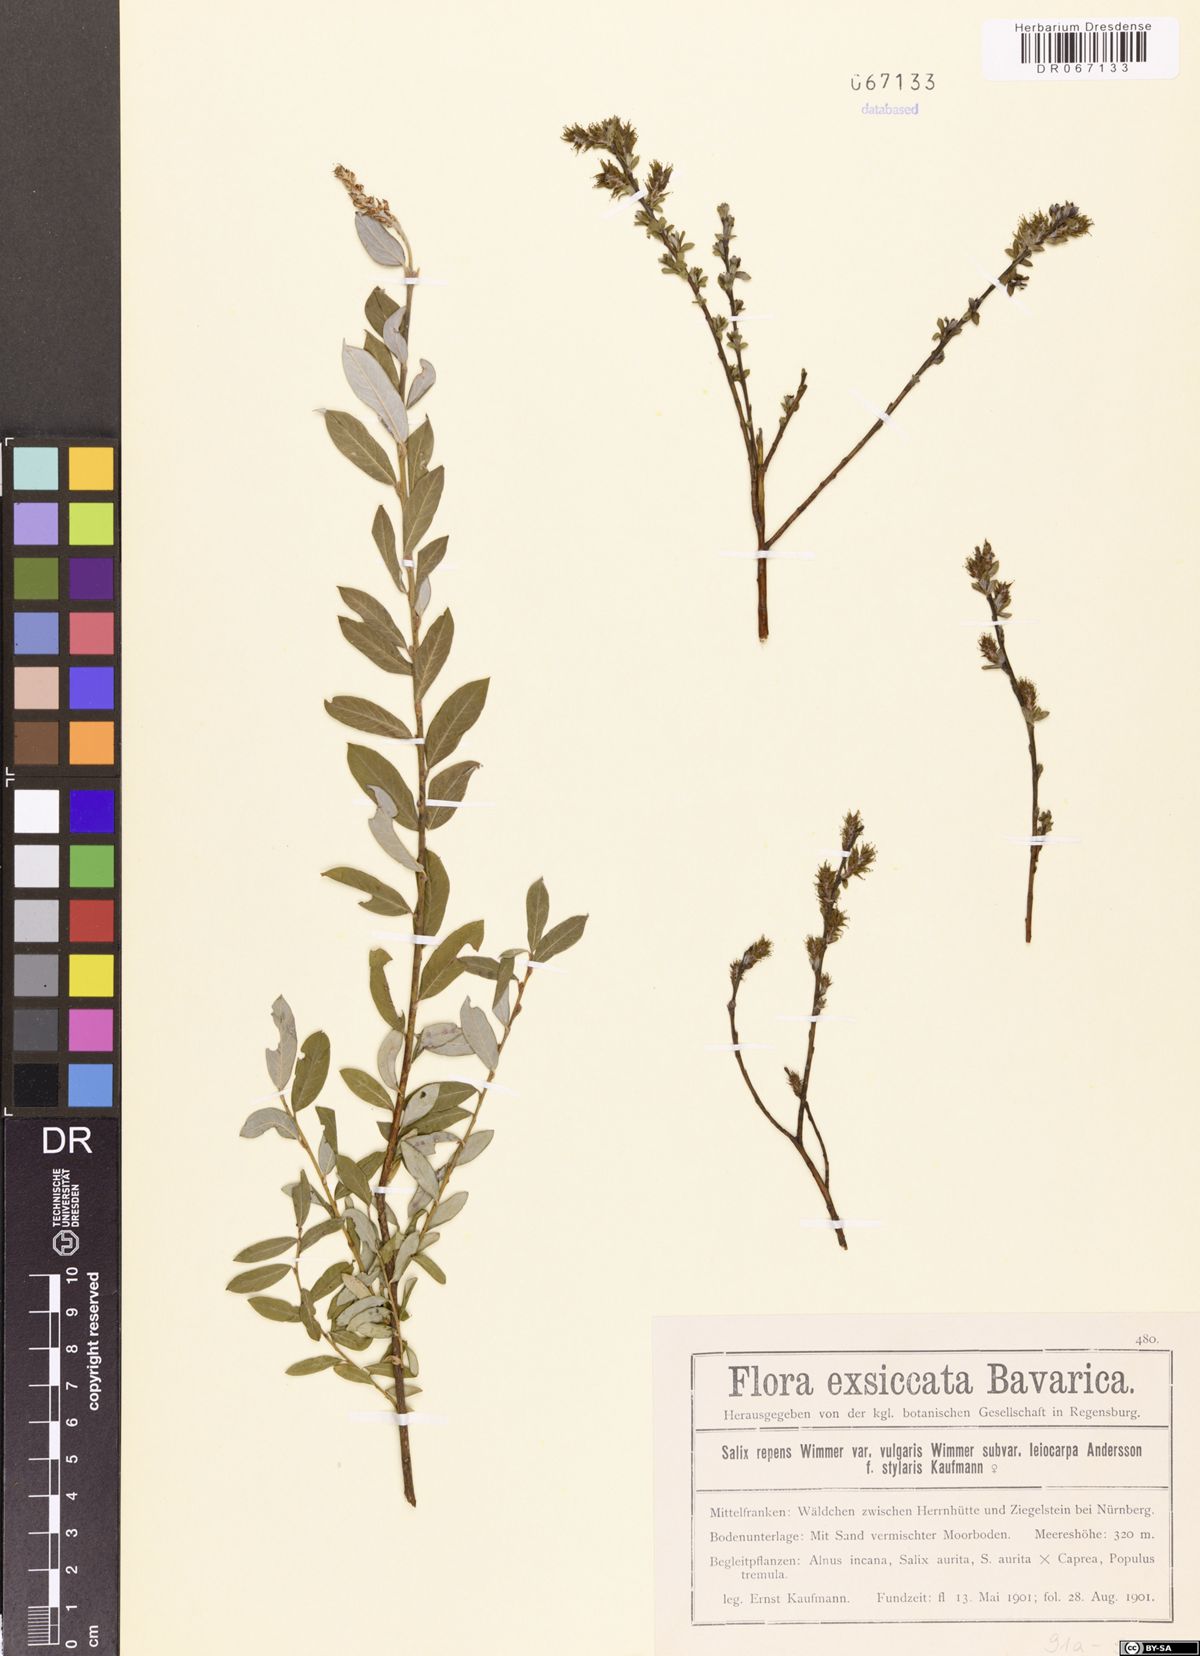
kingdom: Plantae
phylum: Tracheophyta
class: Magnoliopsida
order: Malpighiales
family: Salicaceae
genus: Salix
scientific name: Salix repens
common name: Creeping willow
